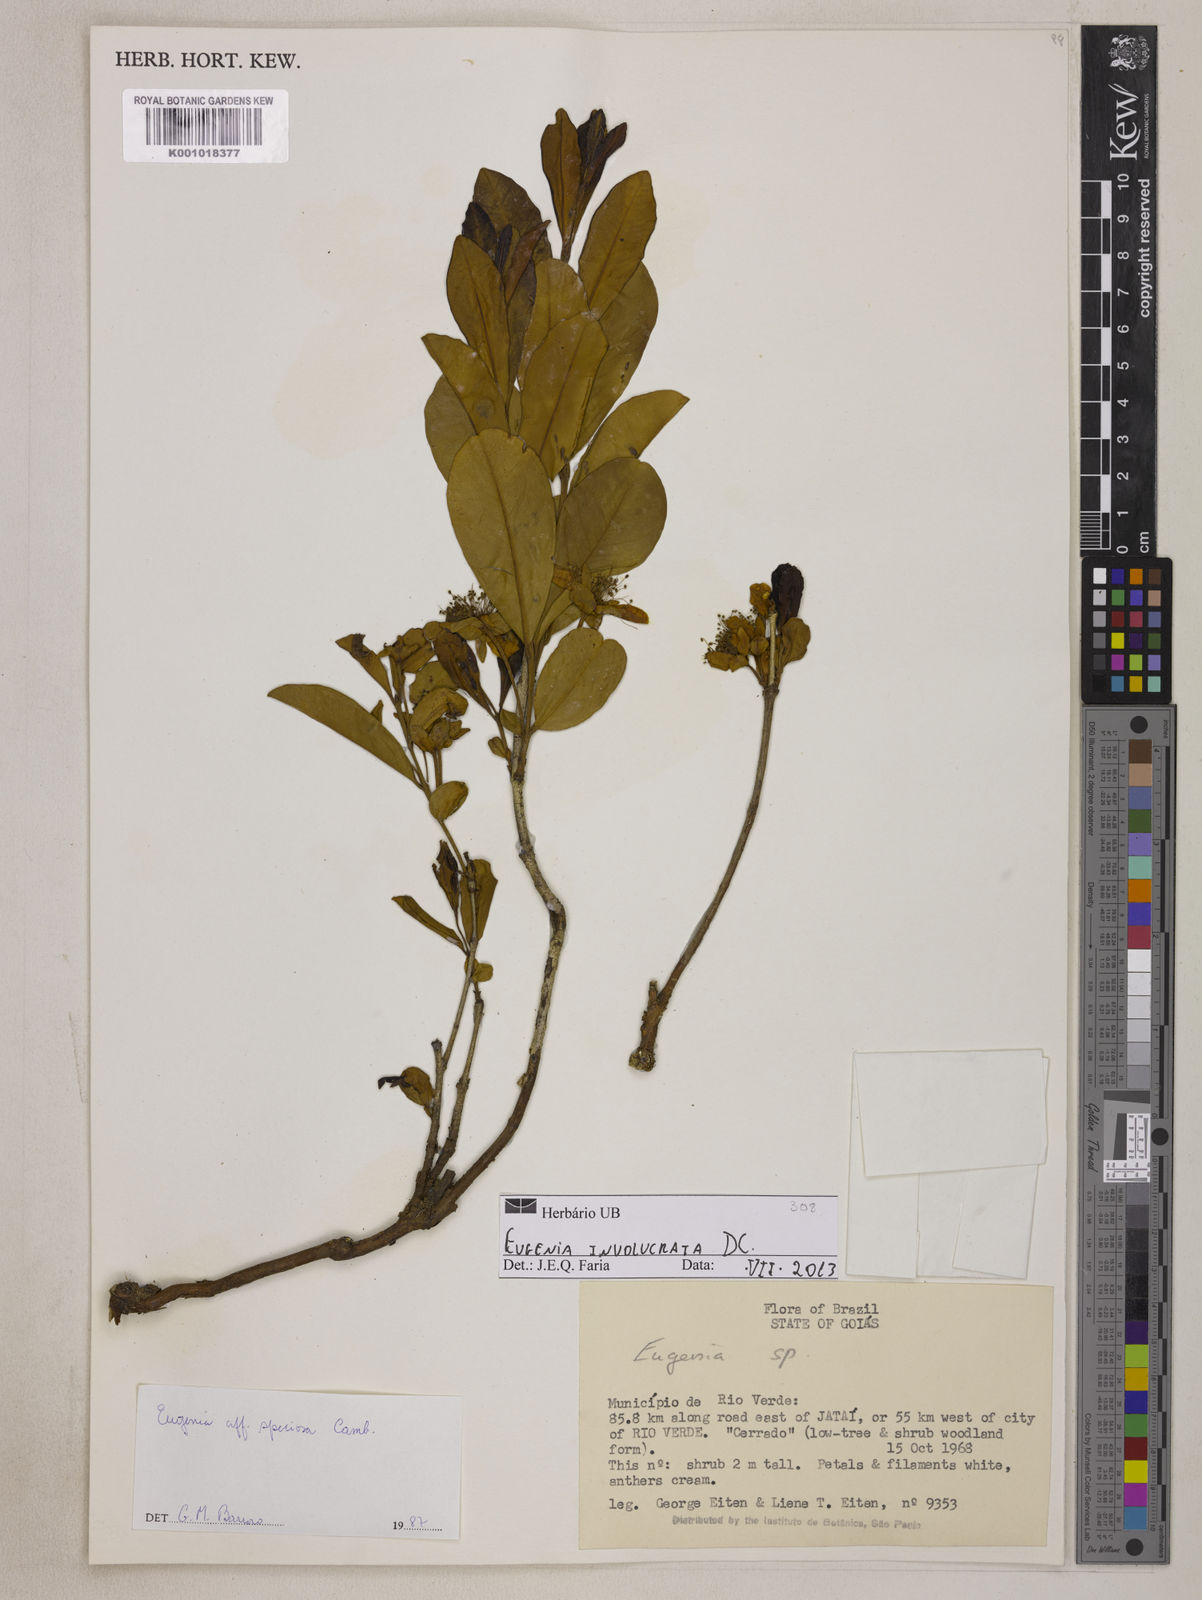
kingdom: Plantae
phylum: Tracheophyta
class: Magnoliopsida
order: Myrtales
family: Myrtaceae
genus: Eugenia
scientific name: Eugenia involucrata
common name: Cherry-of-the-rio grande
